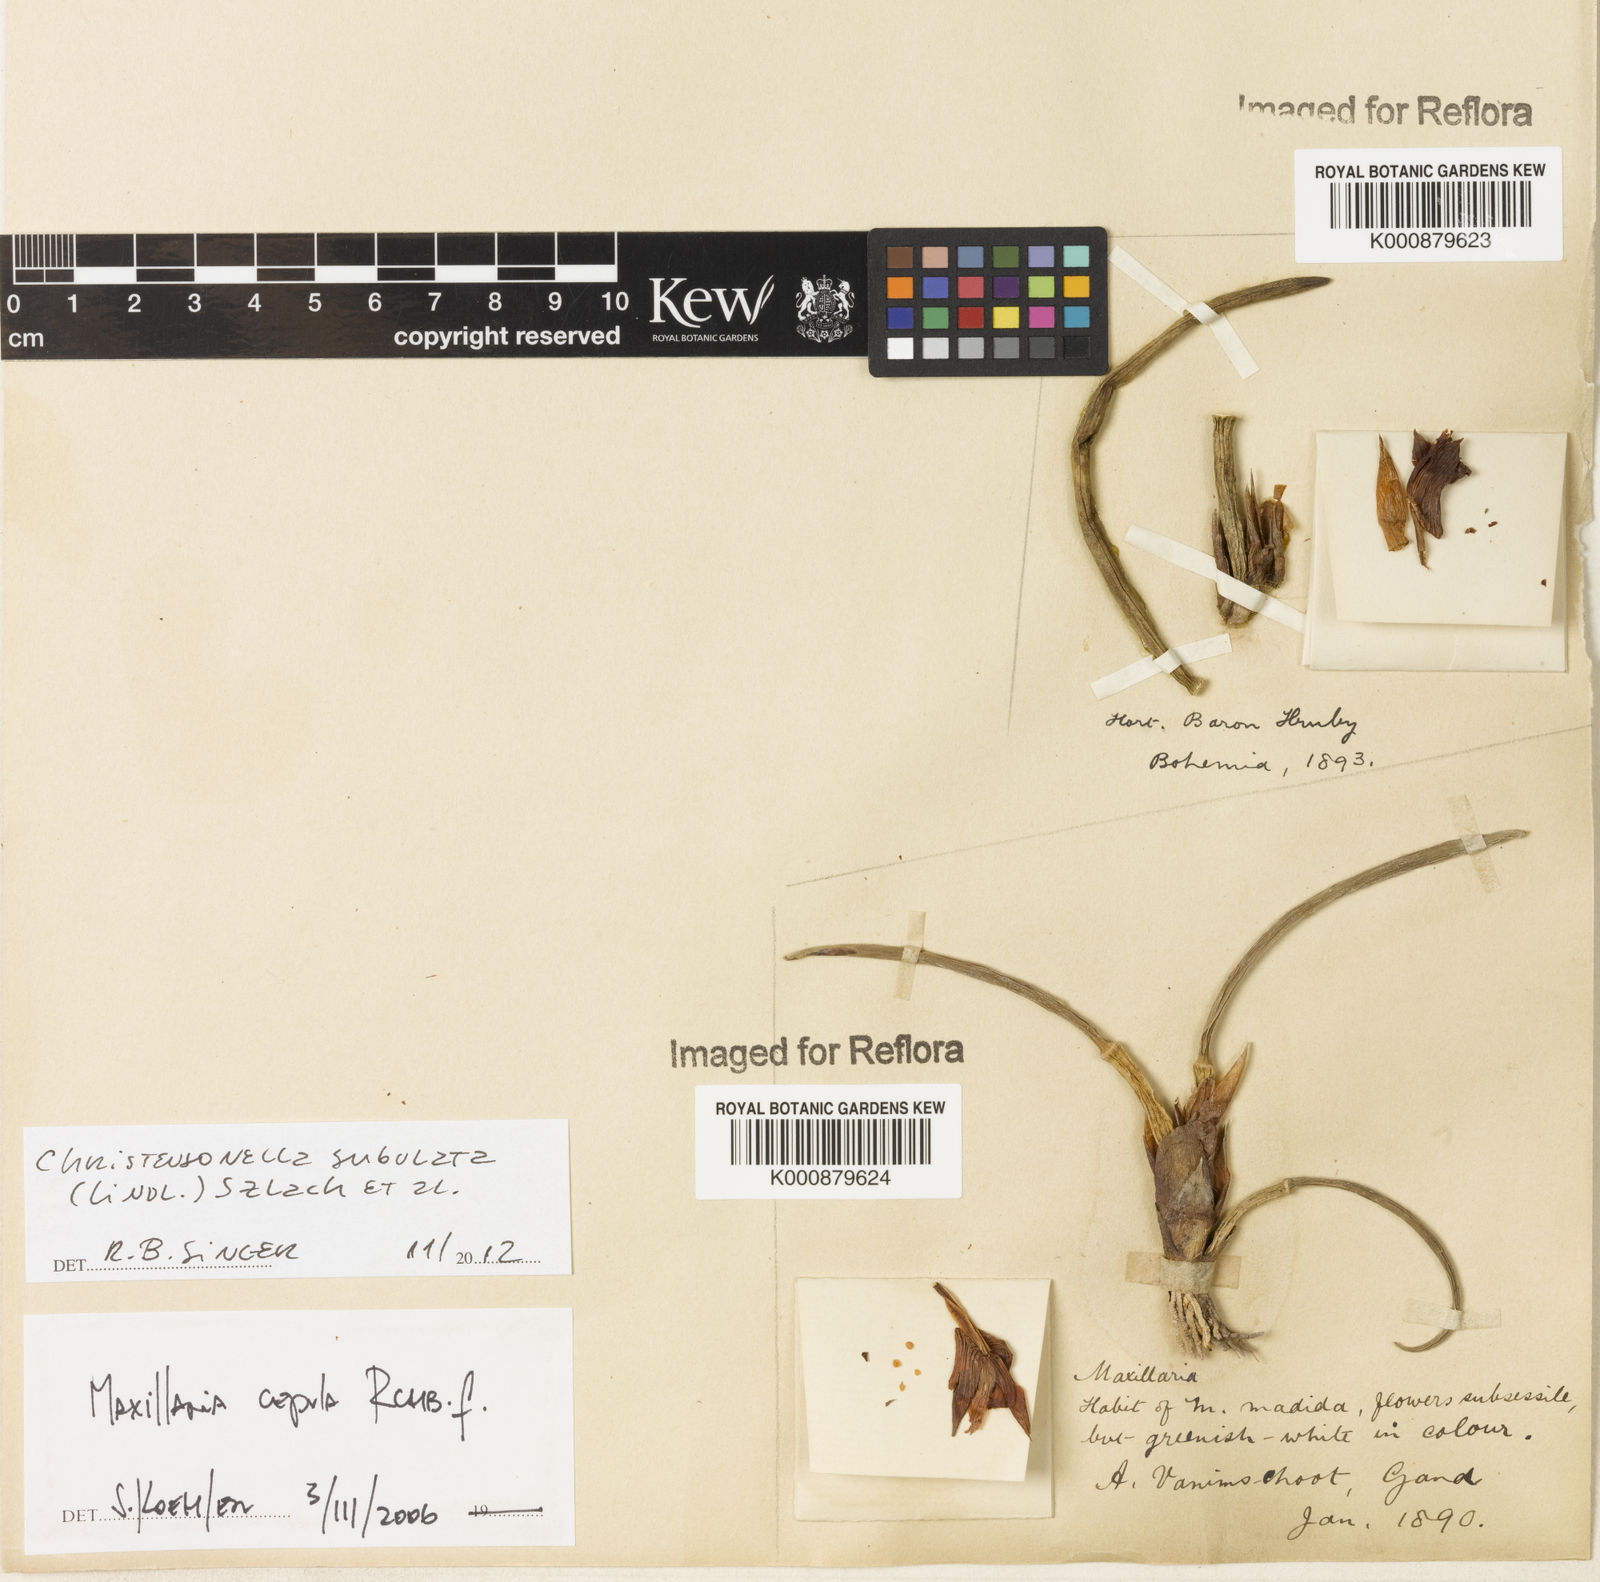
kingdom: Plantae
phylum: Tracheophyta
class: Liliopsida
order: Asparagales
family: Orchidaceae
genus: Maxillaria
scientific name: Maxillaria subulata
